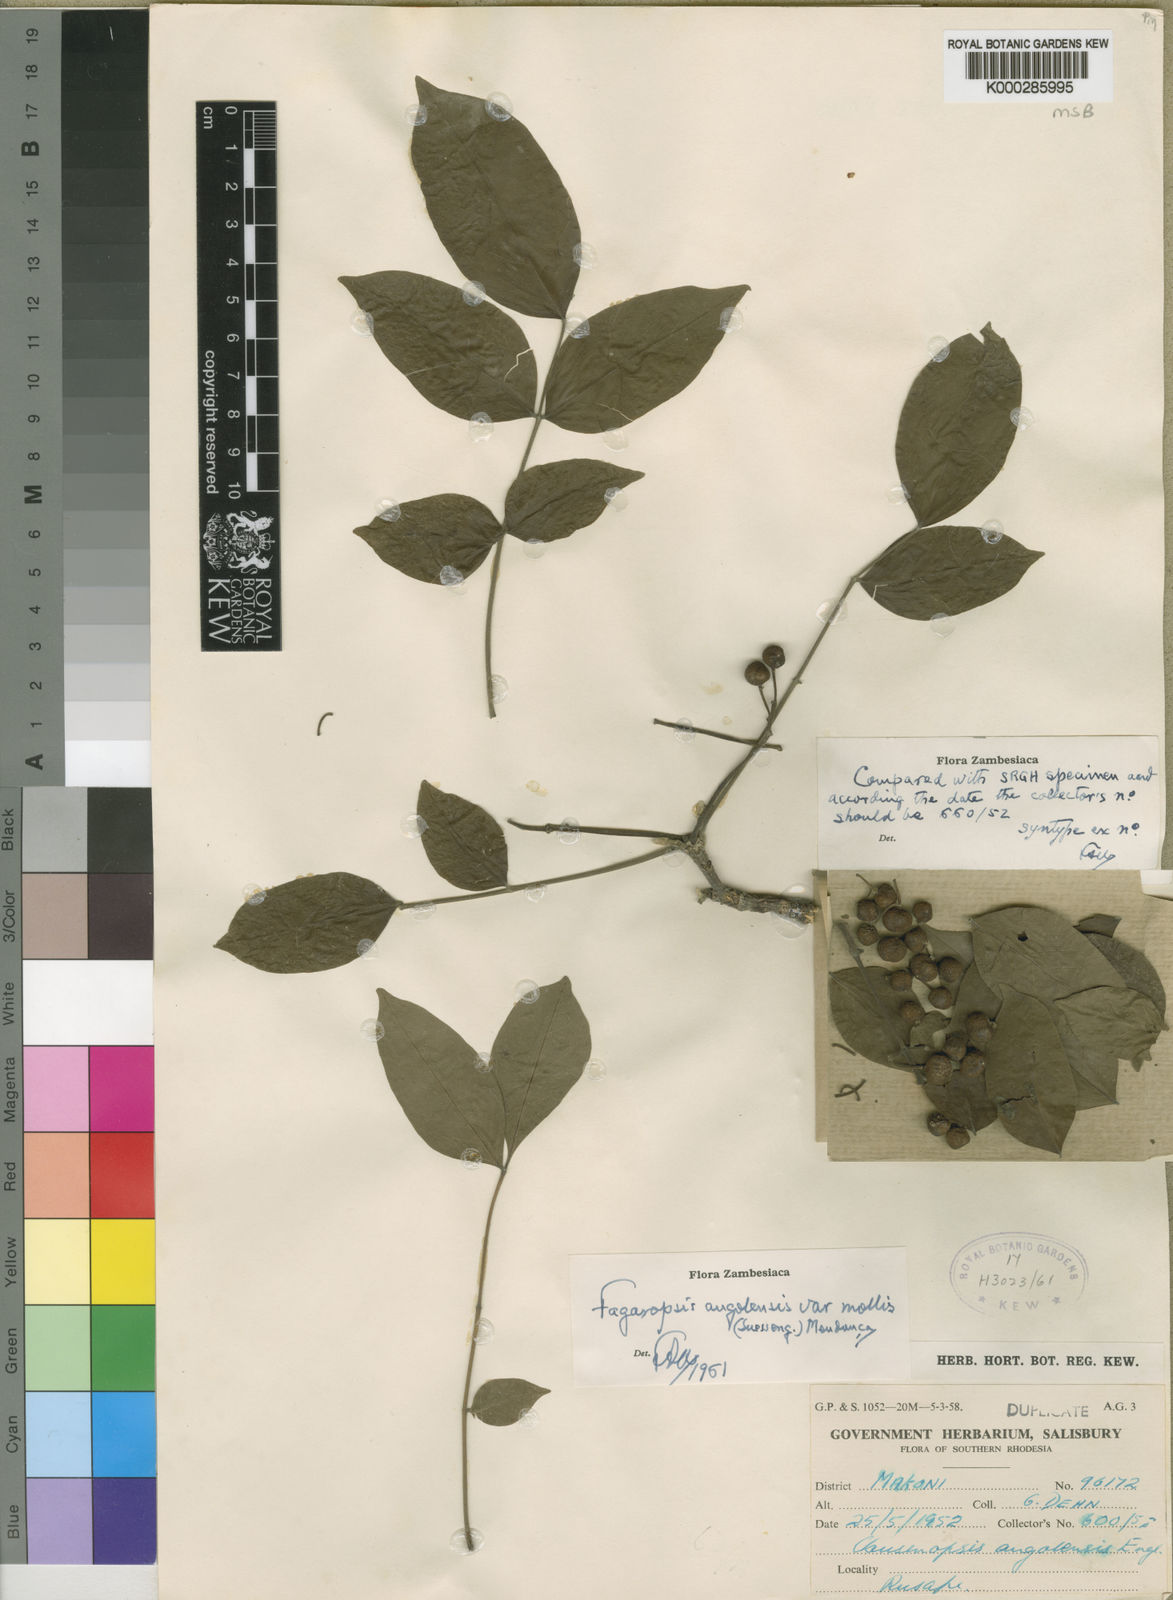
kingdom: Plantae
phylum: Tracheophyta
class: Magnoliopsida
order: Sapindales
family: Rutaceae
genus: Fagaropsis
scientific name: Fagaropsis
